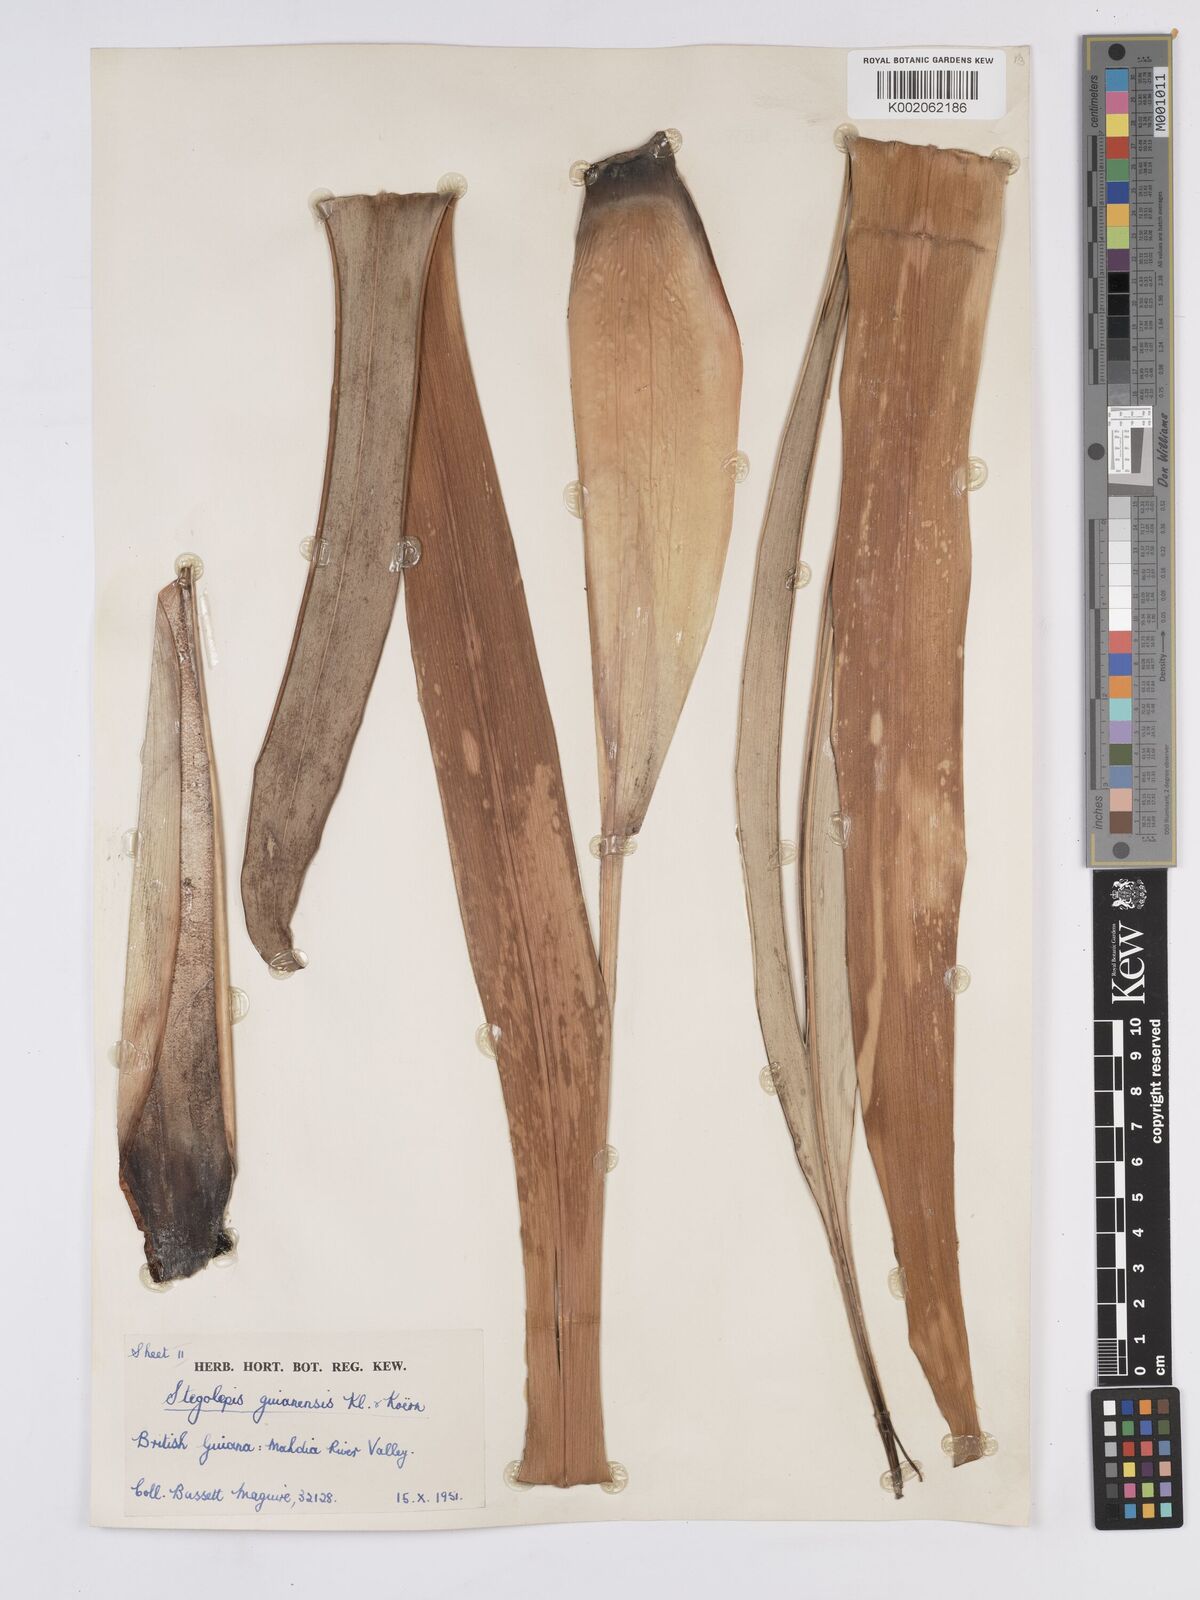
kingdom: Plantae
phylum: Tracheophyta
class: Liliopsida
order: Poales
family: Rapateaceae
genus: Stegolepis
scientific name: Stegolepis guianensis
